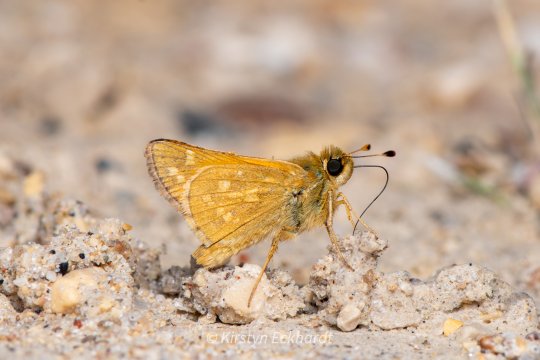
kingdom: Animalia
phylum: Arthropoda
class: Insecta
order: Lepidoptera
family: Hesperiidae
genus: Hesperia
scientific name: Hesperia
